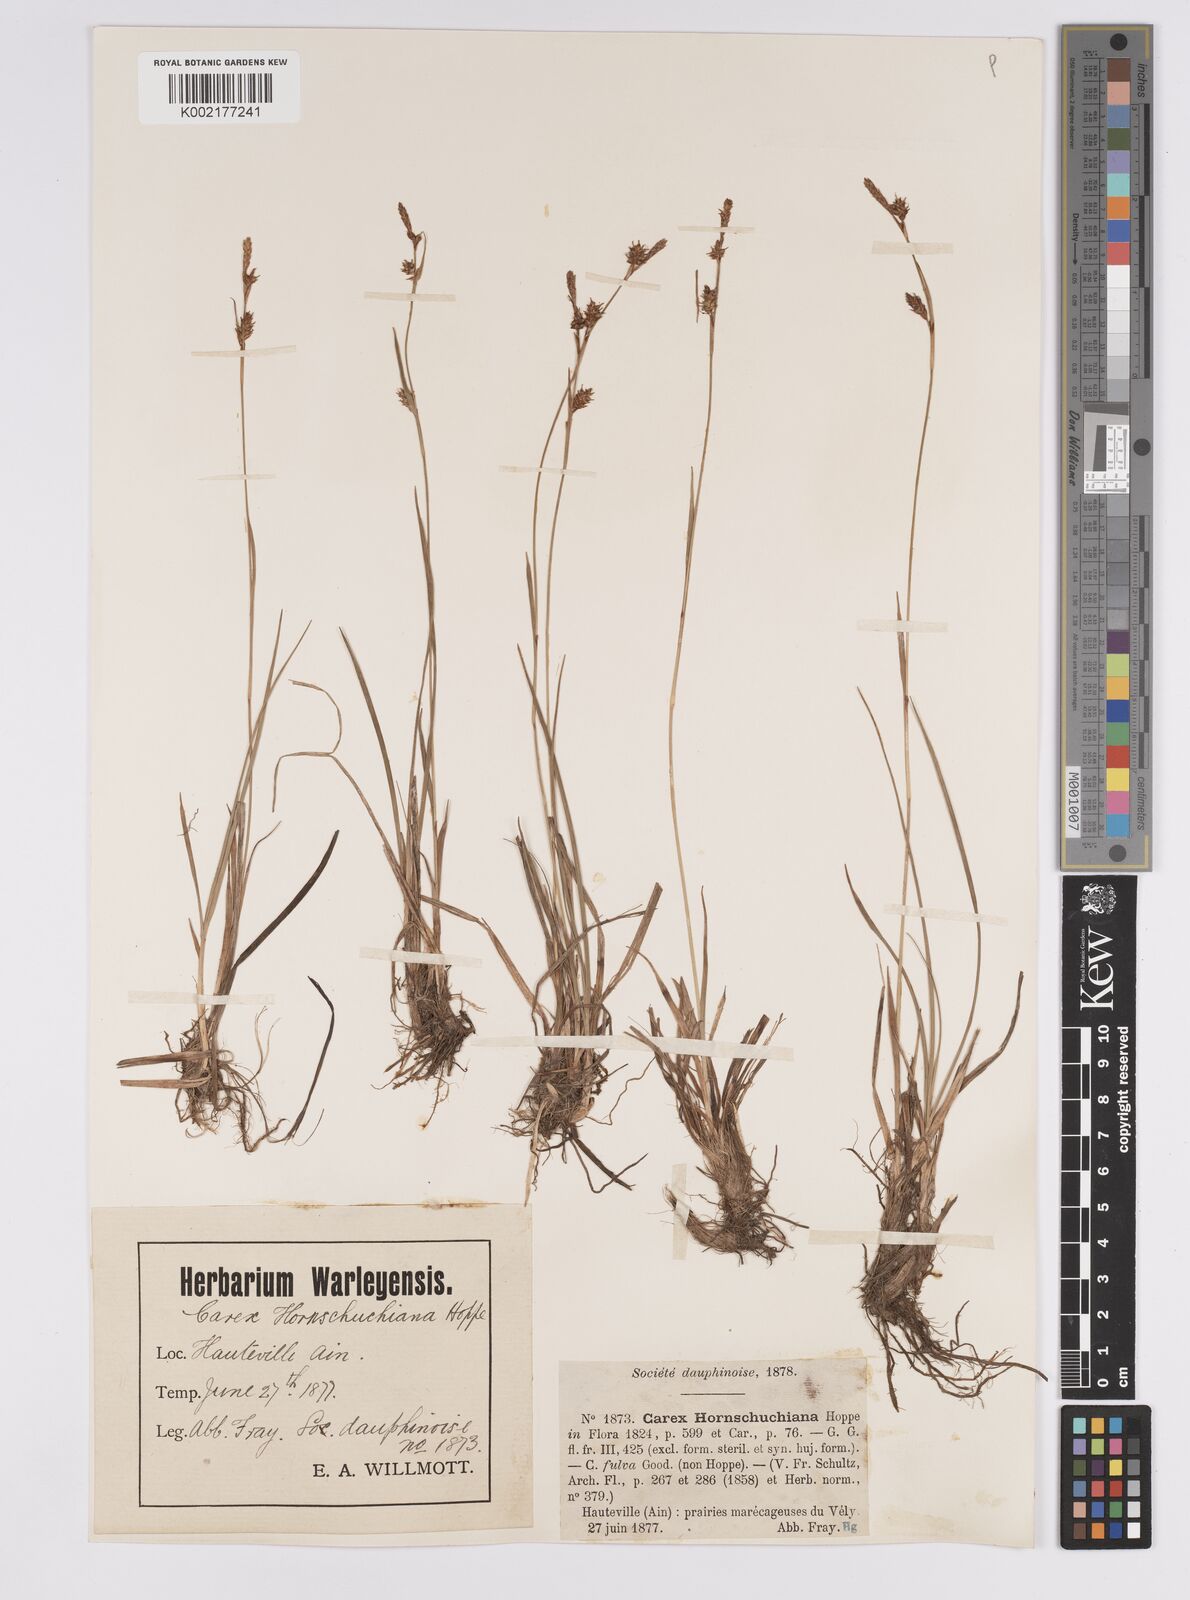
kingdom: Plantae
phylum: Tracheophyta
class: Liliopsida
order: Poales
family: Cyperaceae
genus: Carex
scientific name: Carex hostiana
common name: Tawny sedge
